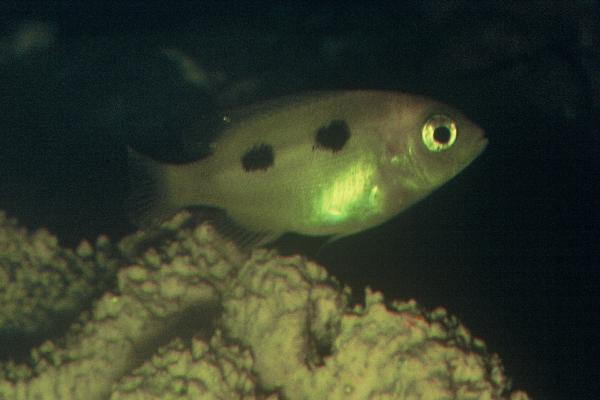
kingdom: Animalia
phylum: Chordata
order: Perciformes
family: Sparidae
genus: Porcostoma
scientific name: Porcostoma dentata
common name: Dane
